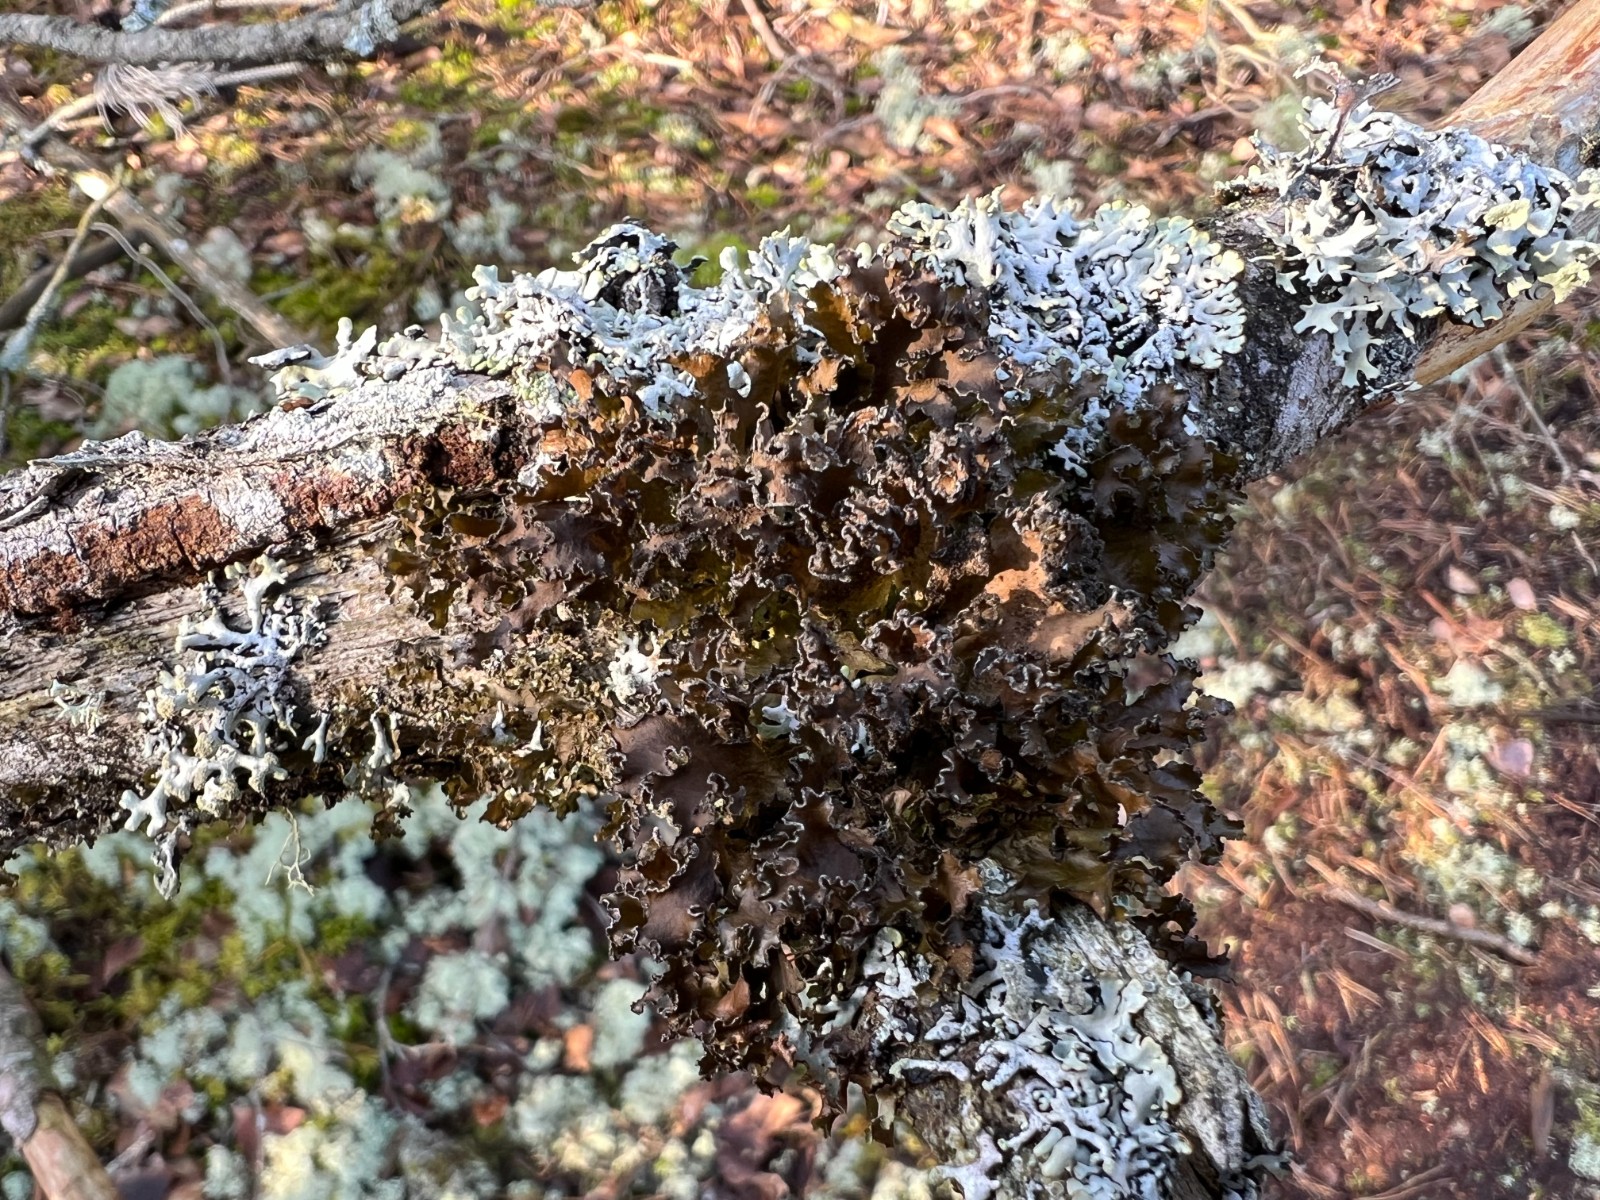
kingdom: Fungi
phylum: Ascomycota
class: Lecanoromycetes
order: Lecanorales
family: Parmeliaceae
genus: Nephromopsis
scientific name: Nephromopsis chlorophylla
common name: olivenbrun kruslav
